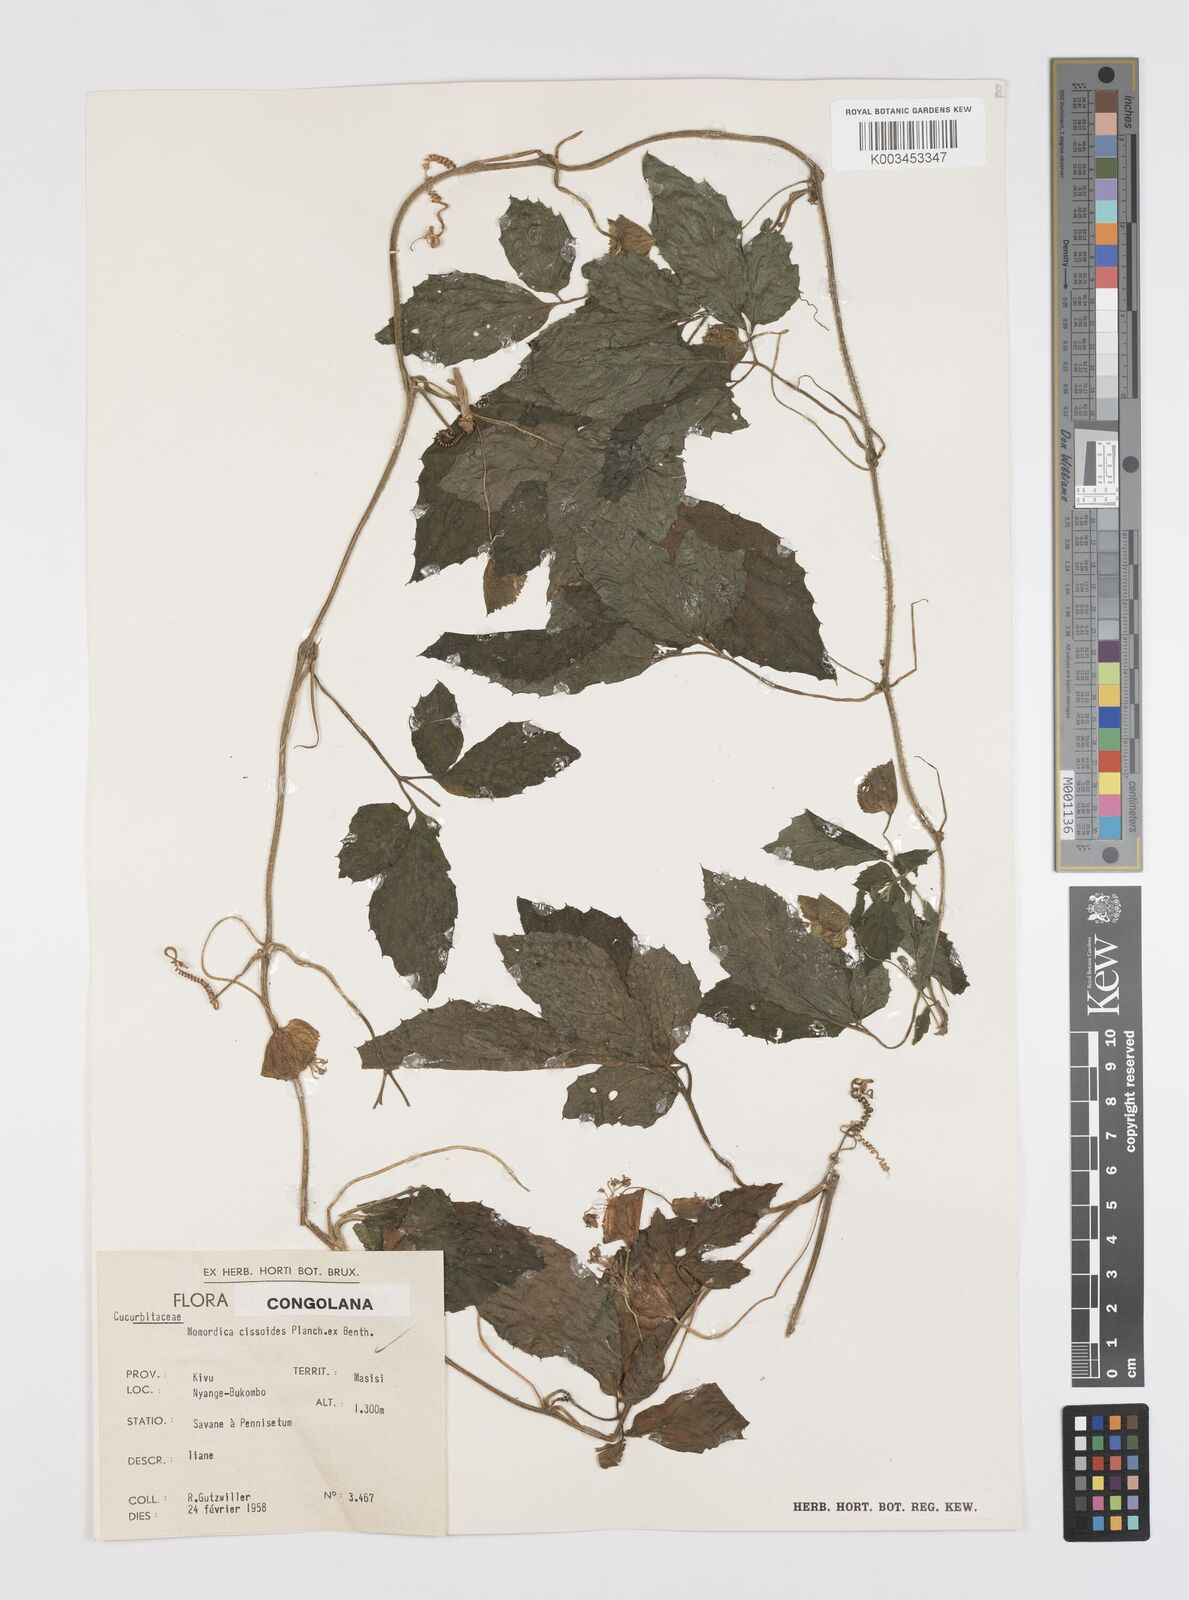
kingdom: Plantae
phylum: Tracheophyta
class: Magnoliopsida
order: Cucurbitales
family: Cucurbitaceae
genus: Momordica
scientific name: Momordica cissoides
